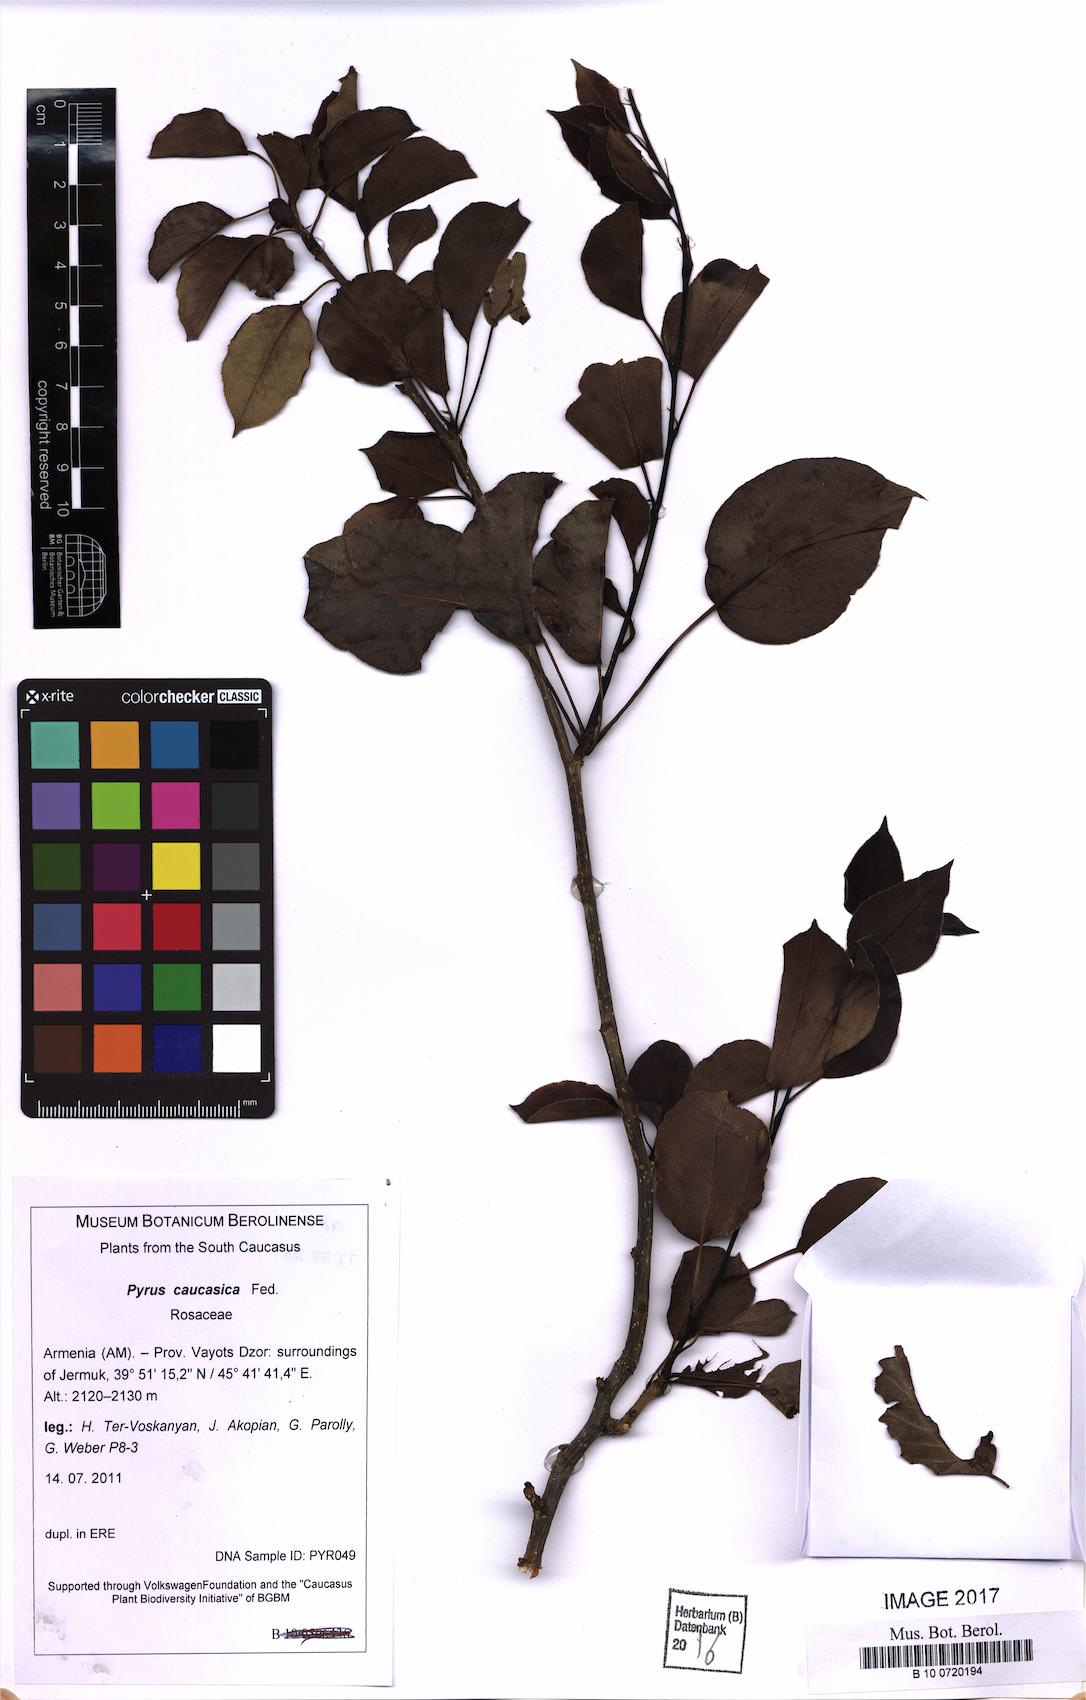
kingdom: Plantae
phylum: Tracheophyta
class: Magnoliopsida
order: Rosales
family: Rosaceae
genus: Pyrus
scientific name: Pyrus communis
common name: Pear
